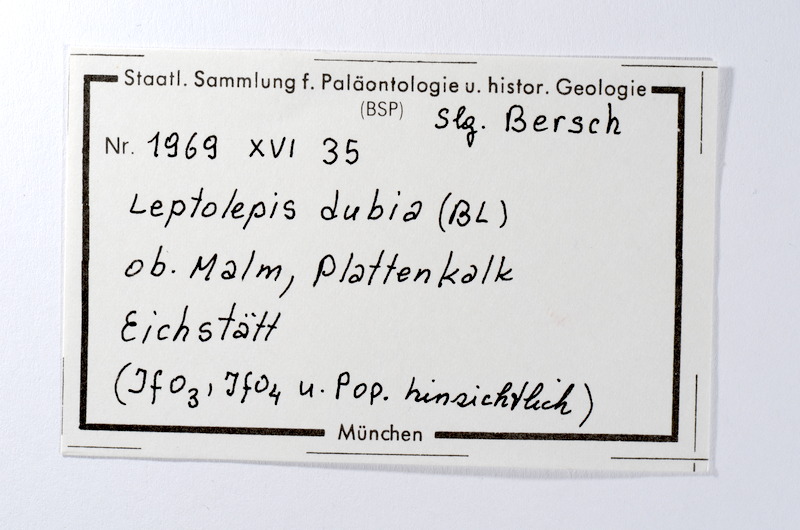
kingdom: Animalia
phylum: Chordata
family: Ascalaboidae
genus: Tharsis
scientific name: Tharsis dubius
